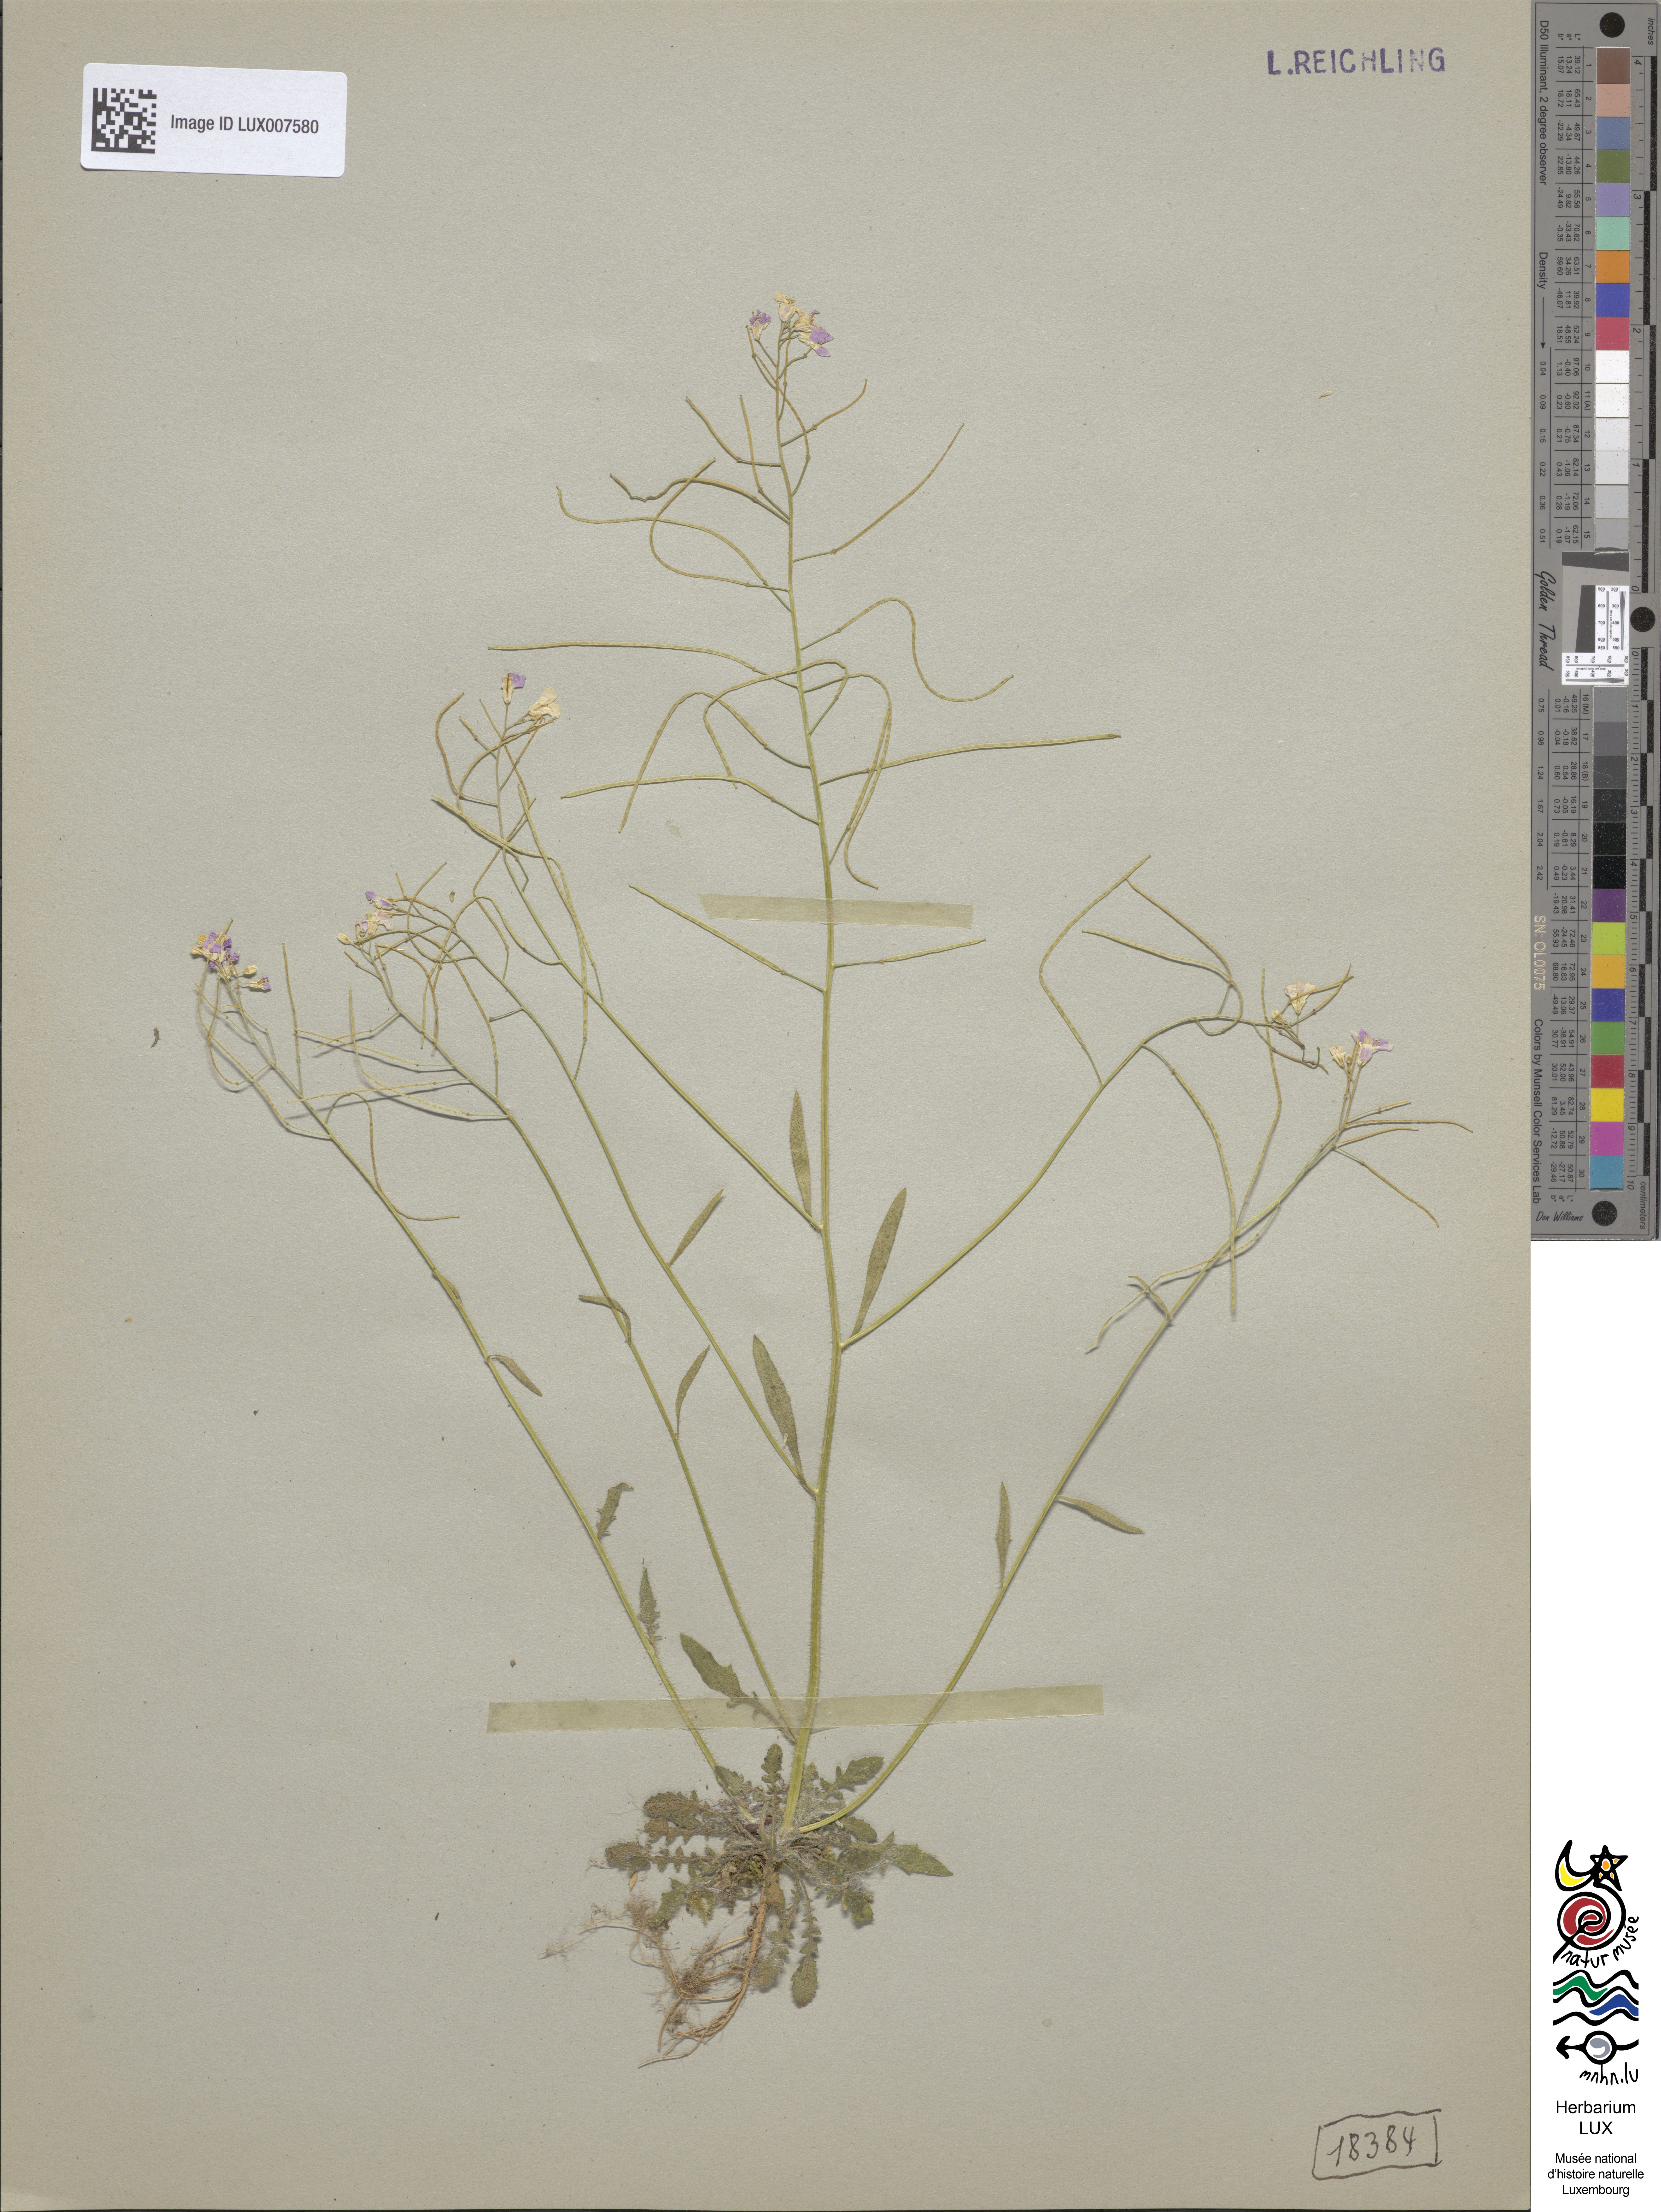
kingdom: Plantae
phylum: Tracheophyta
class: Magnoliopsida
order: Brassicales
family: Brassicaceae
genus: Arabidopsis
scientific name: Arabidopsis arenosa
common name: Sand rock-cress
